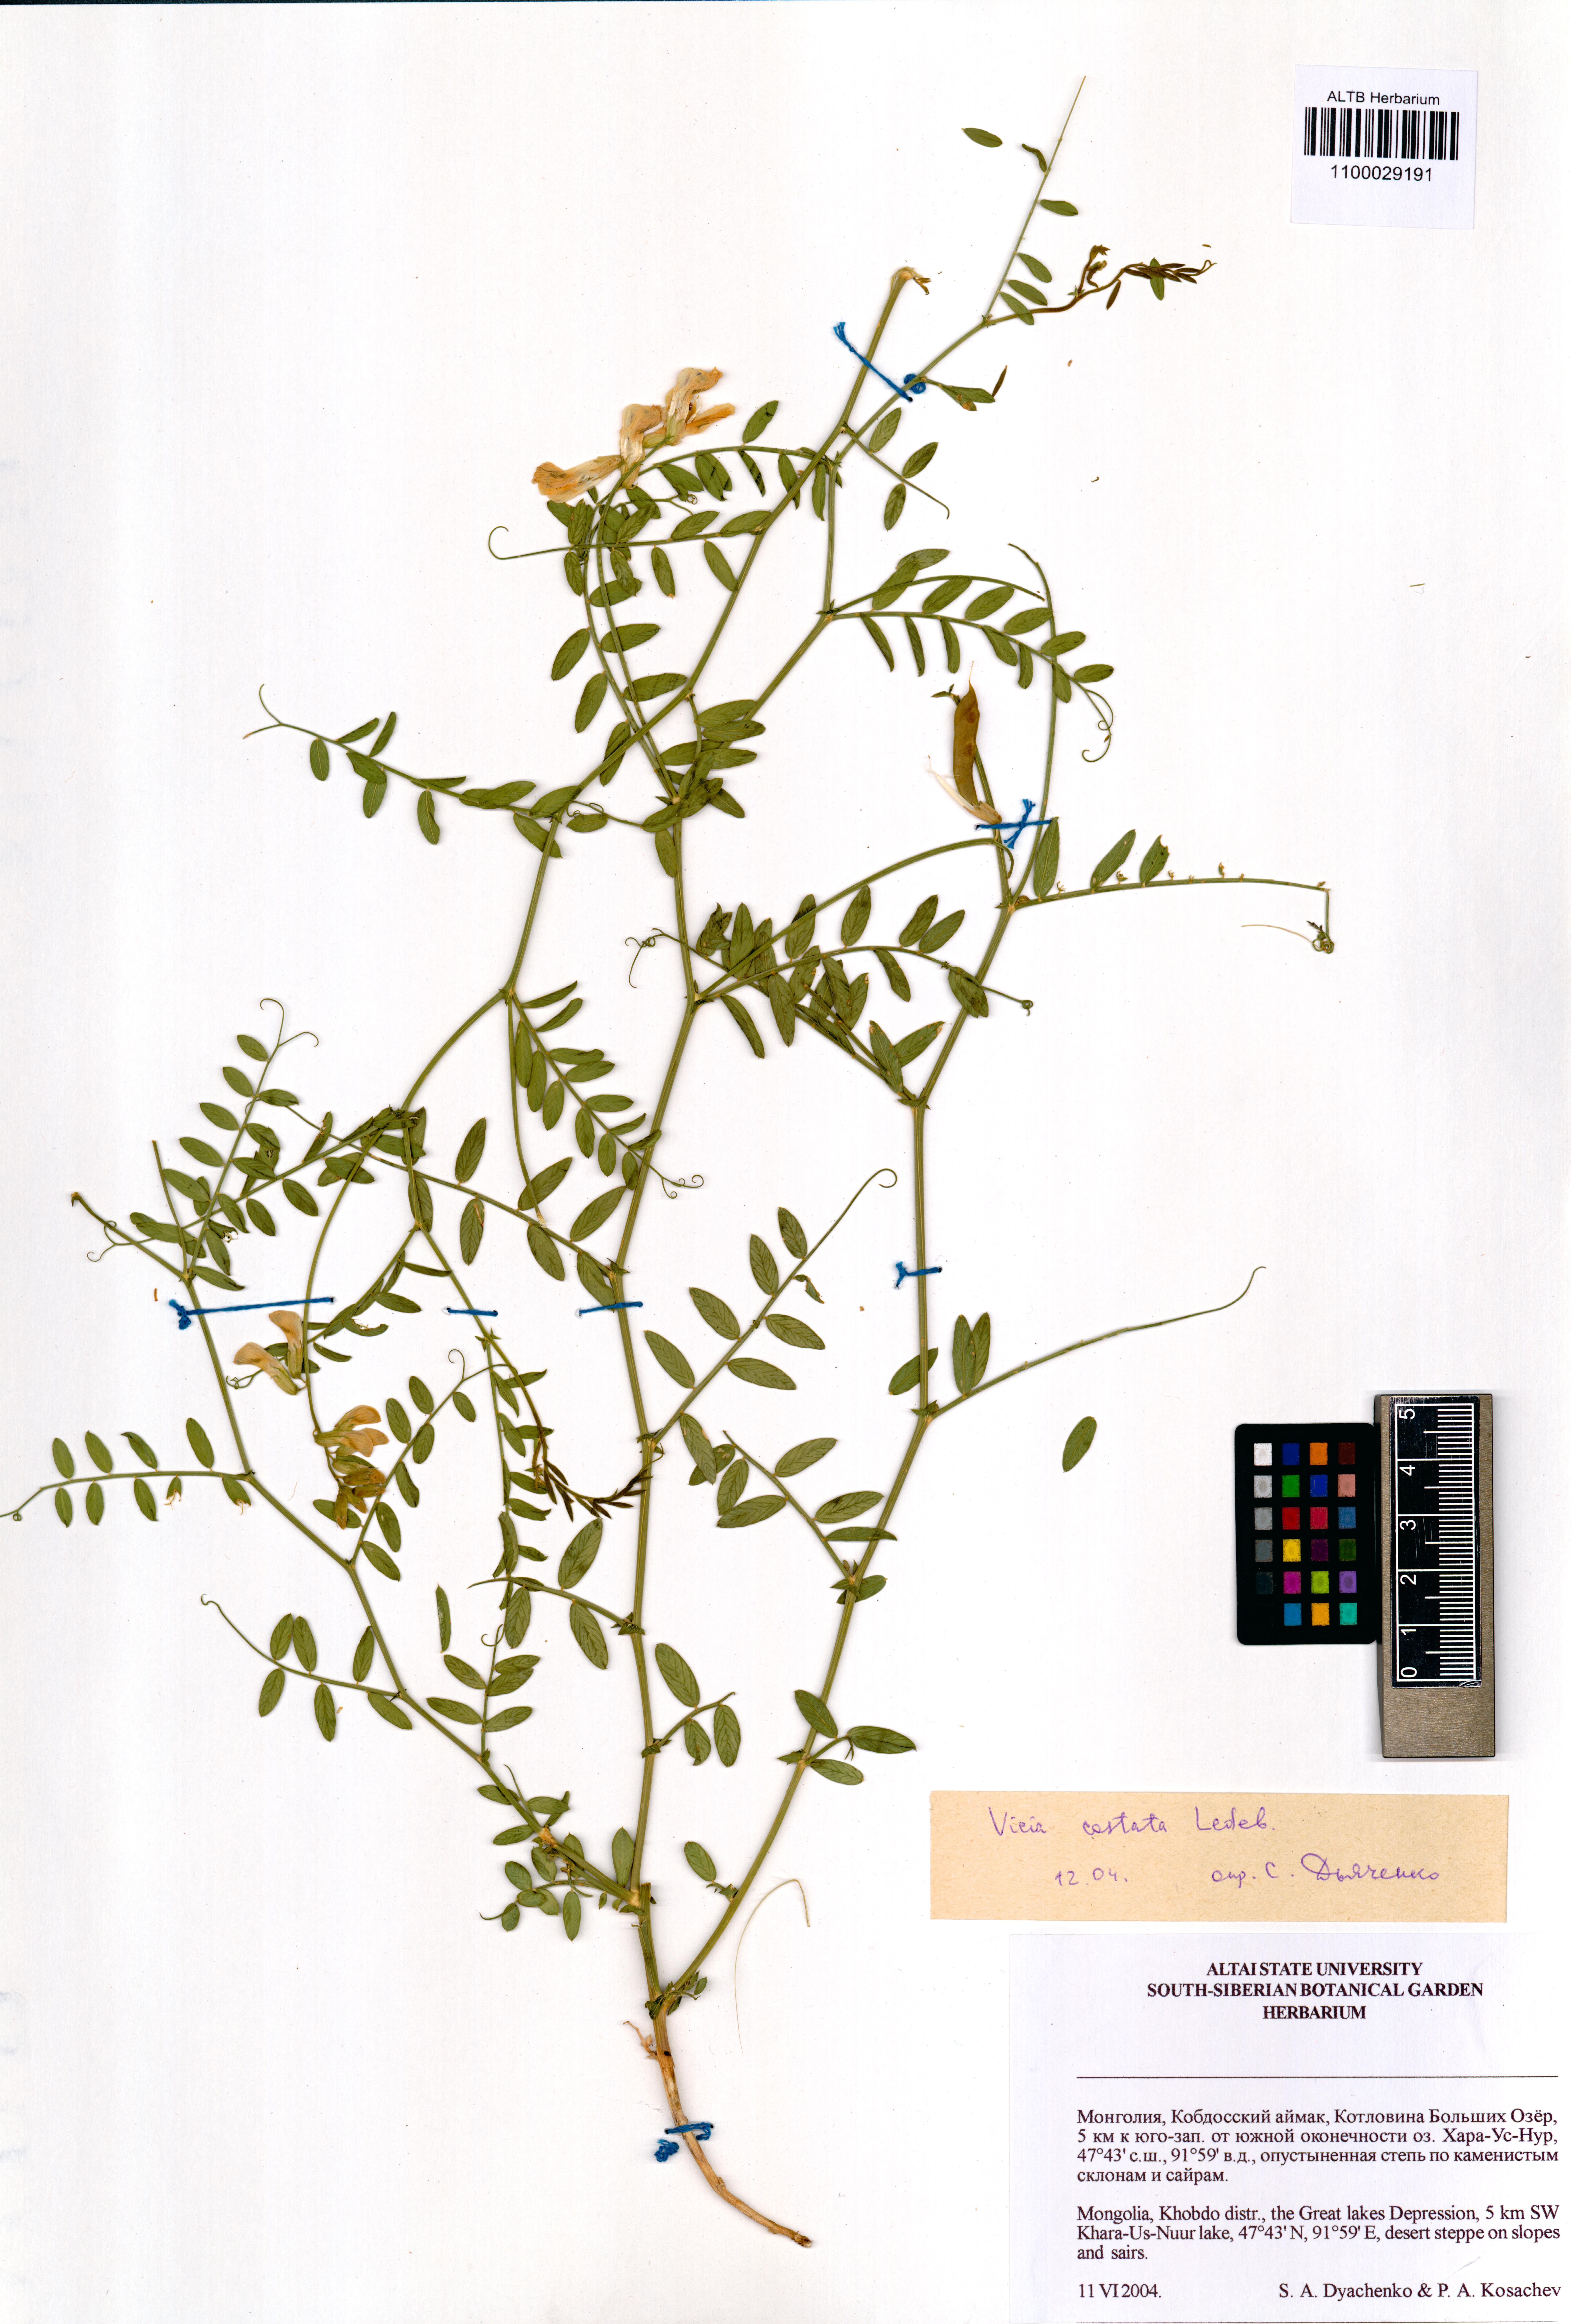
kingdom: Plantae
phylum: Tracheophyta
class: Magnoliopsida
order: Fabales
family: Fabaceae
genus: Vicia
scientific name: Vicia costata
